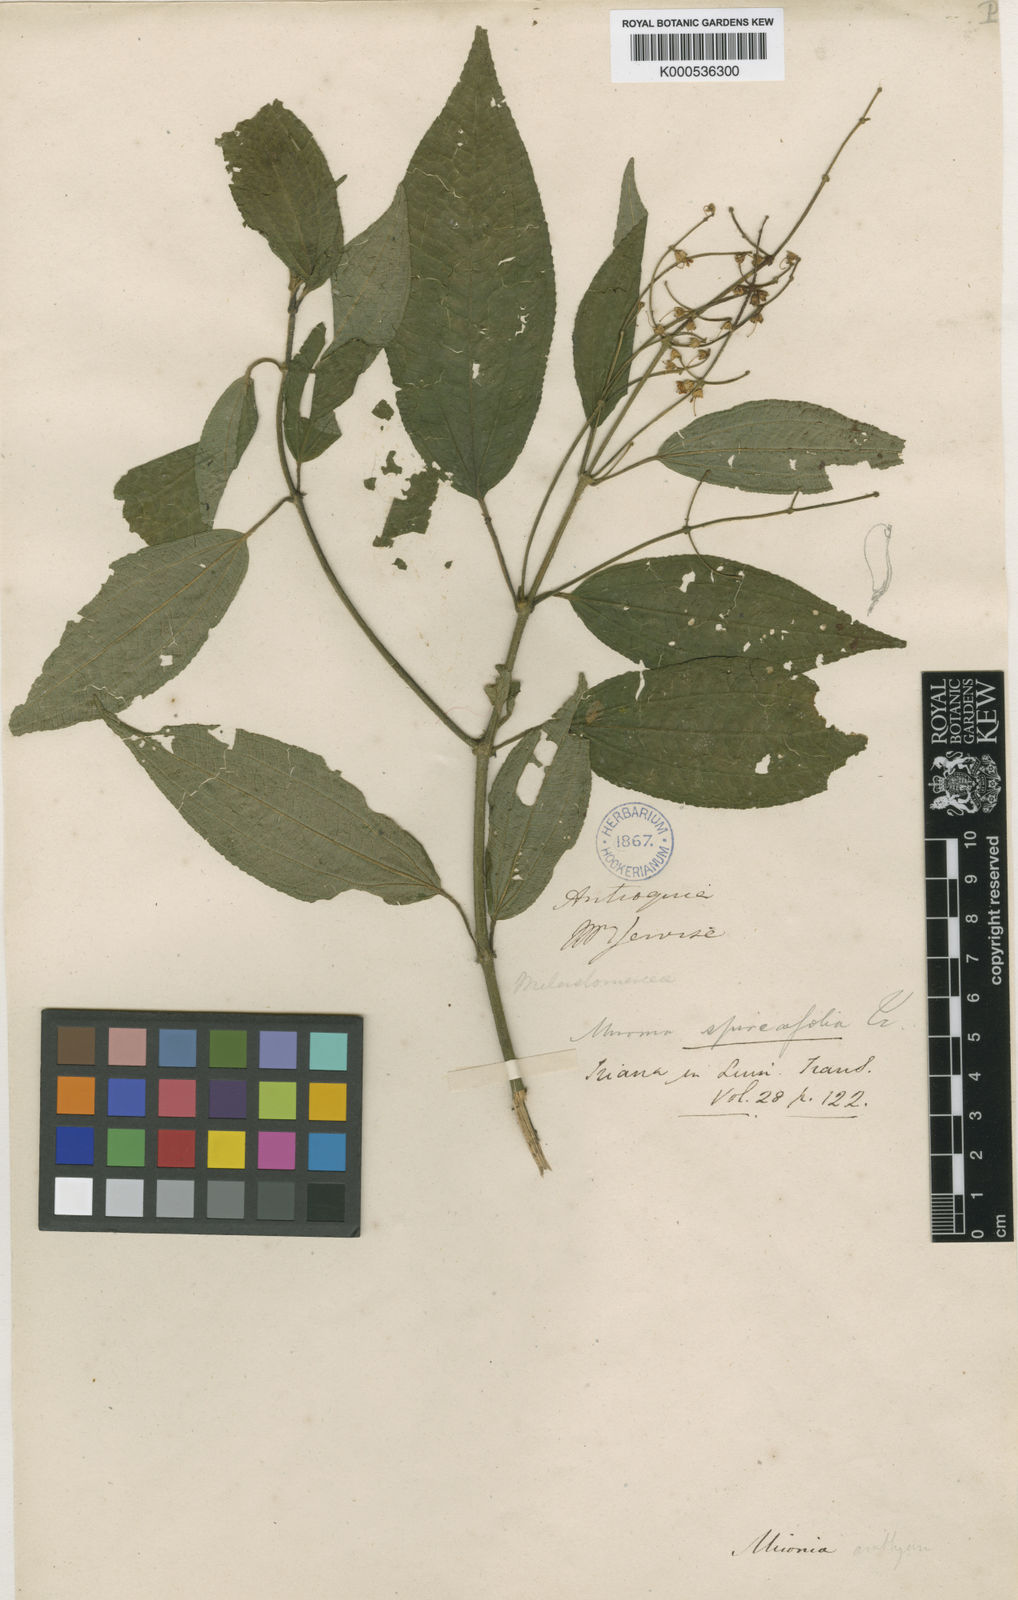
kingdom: Plantae
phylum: Tracheophyta
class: Magnoliopsida
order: Myrtales
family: Melastomataceae
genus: Miconia
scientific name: Miconia spinulosa
